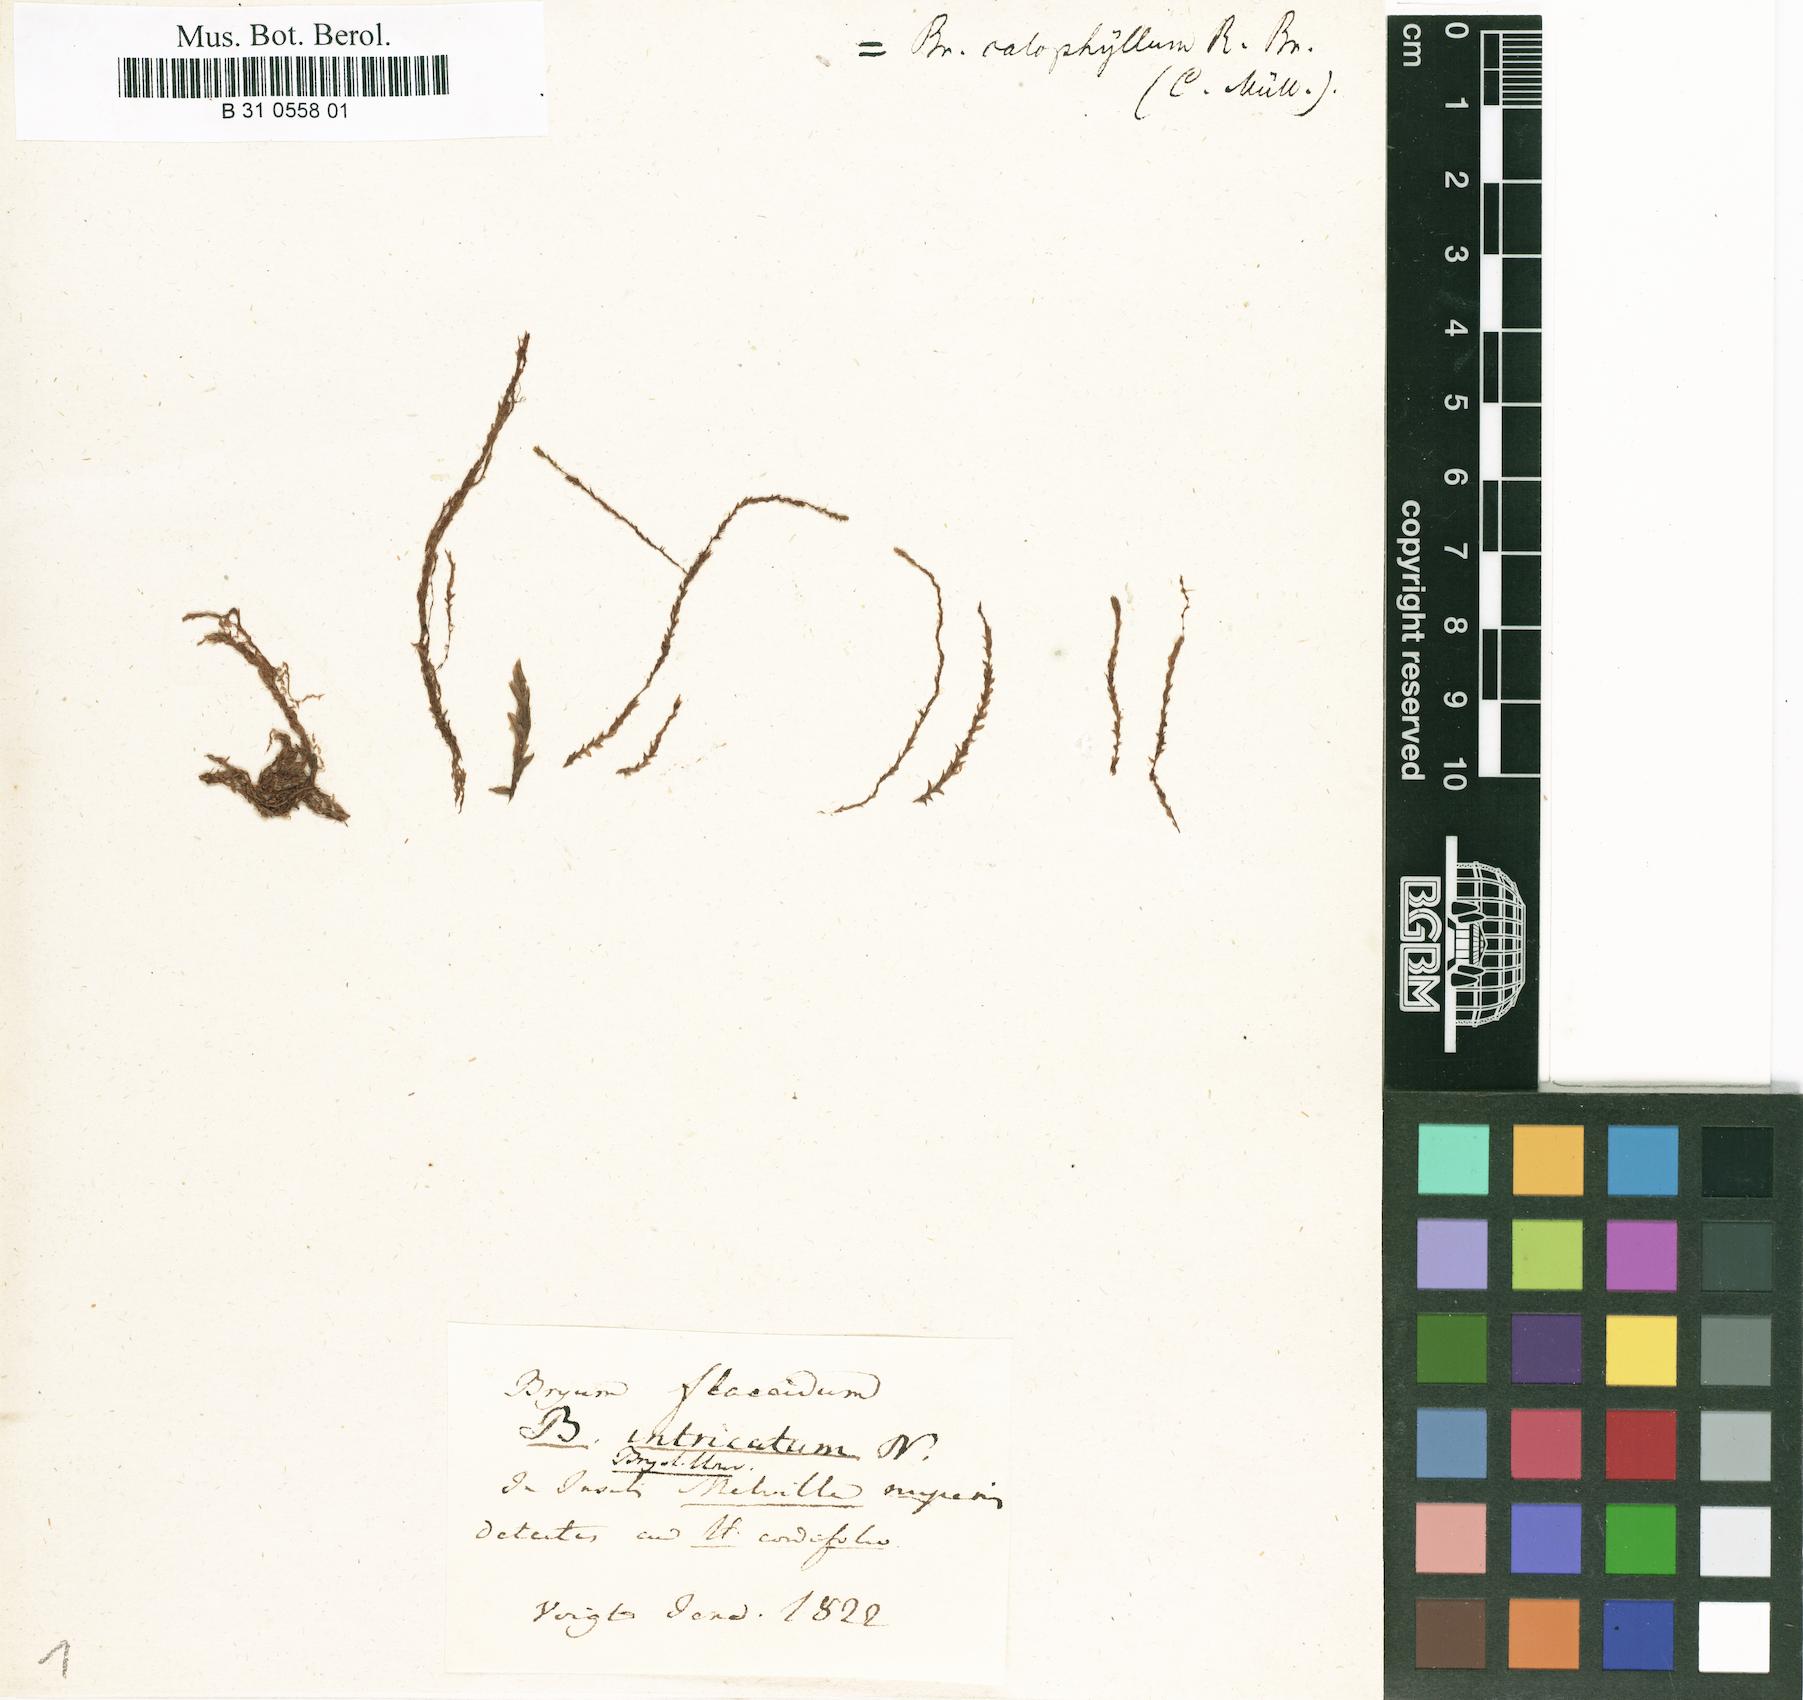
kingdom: Plantae
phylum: Bryophyta
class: Bryopsida
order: Bryales
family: Bryaceae
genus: Ptychostomum
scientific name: Ptychostomum calophyllum
